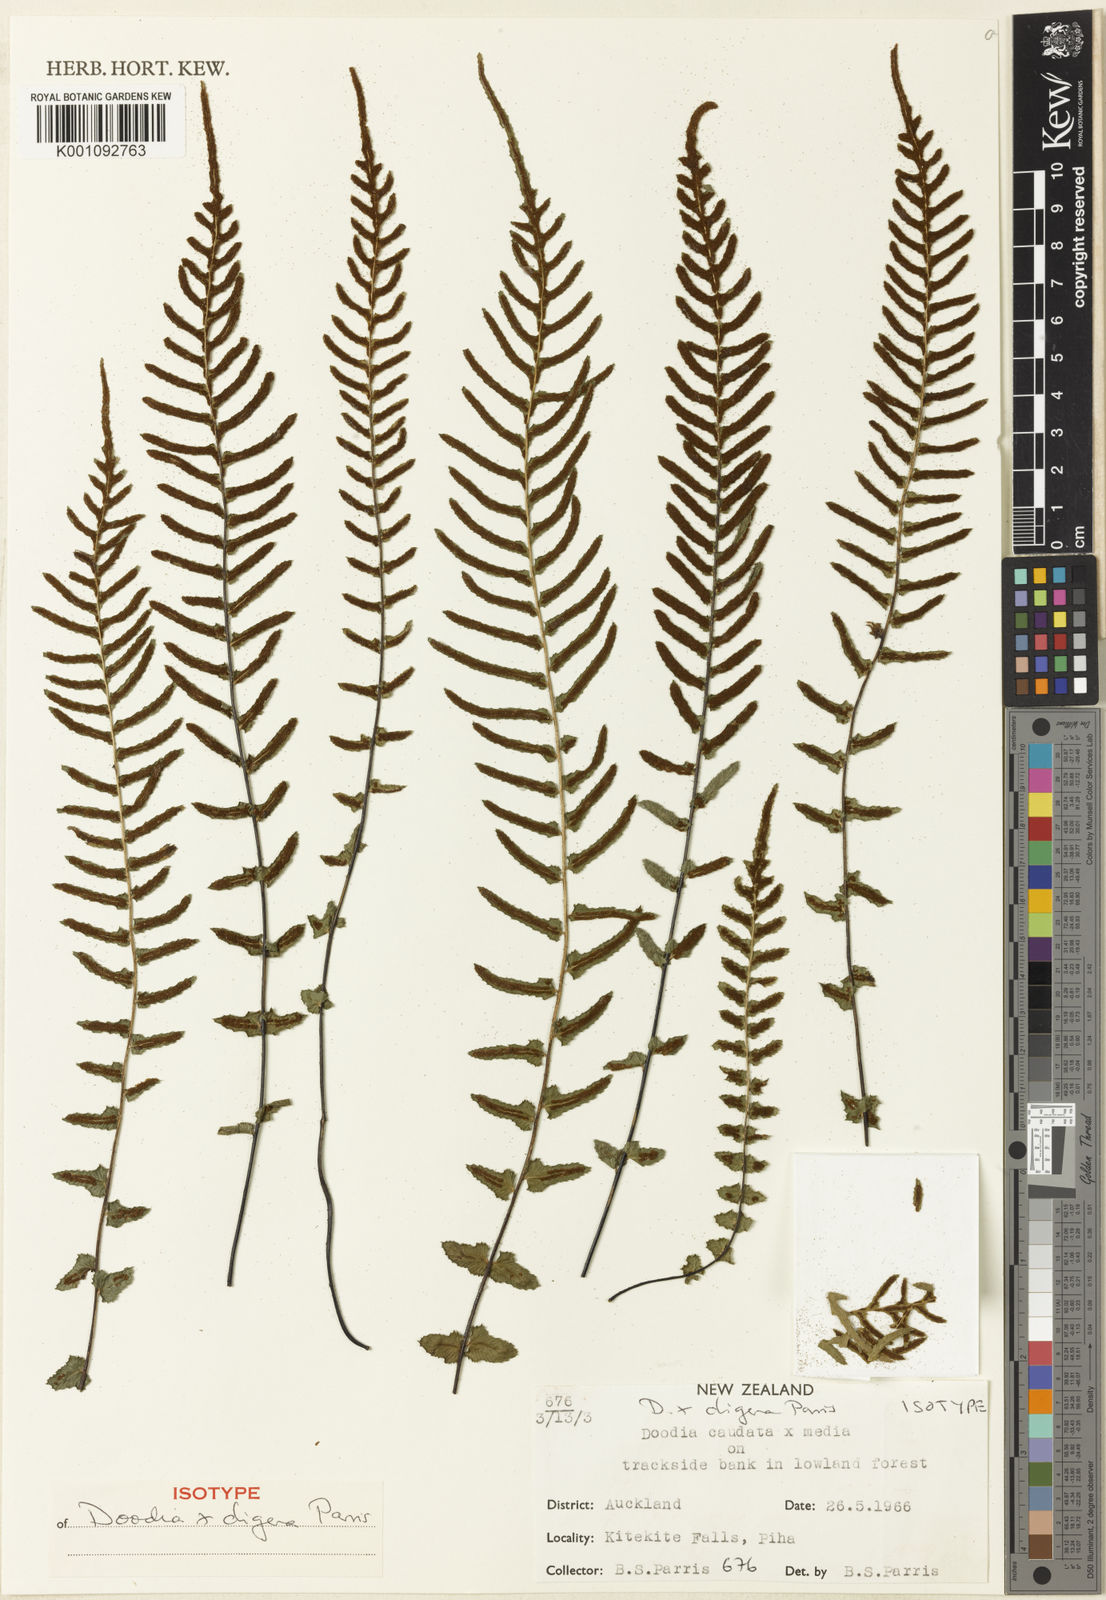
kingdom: Plantae
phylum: Tracheophyta
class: Polypodiopsida
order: Polypodiales
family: Blechnaceae
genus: Doodia
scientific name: Doodia digena
